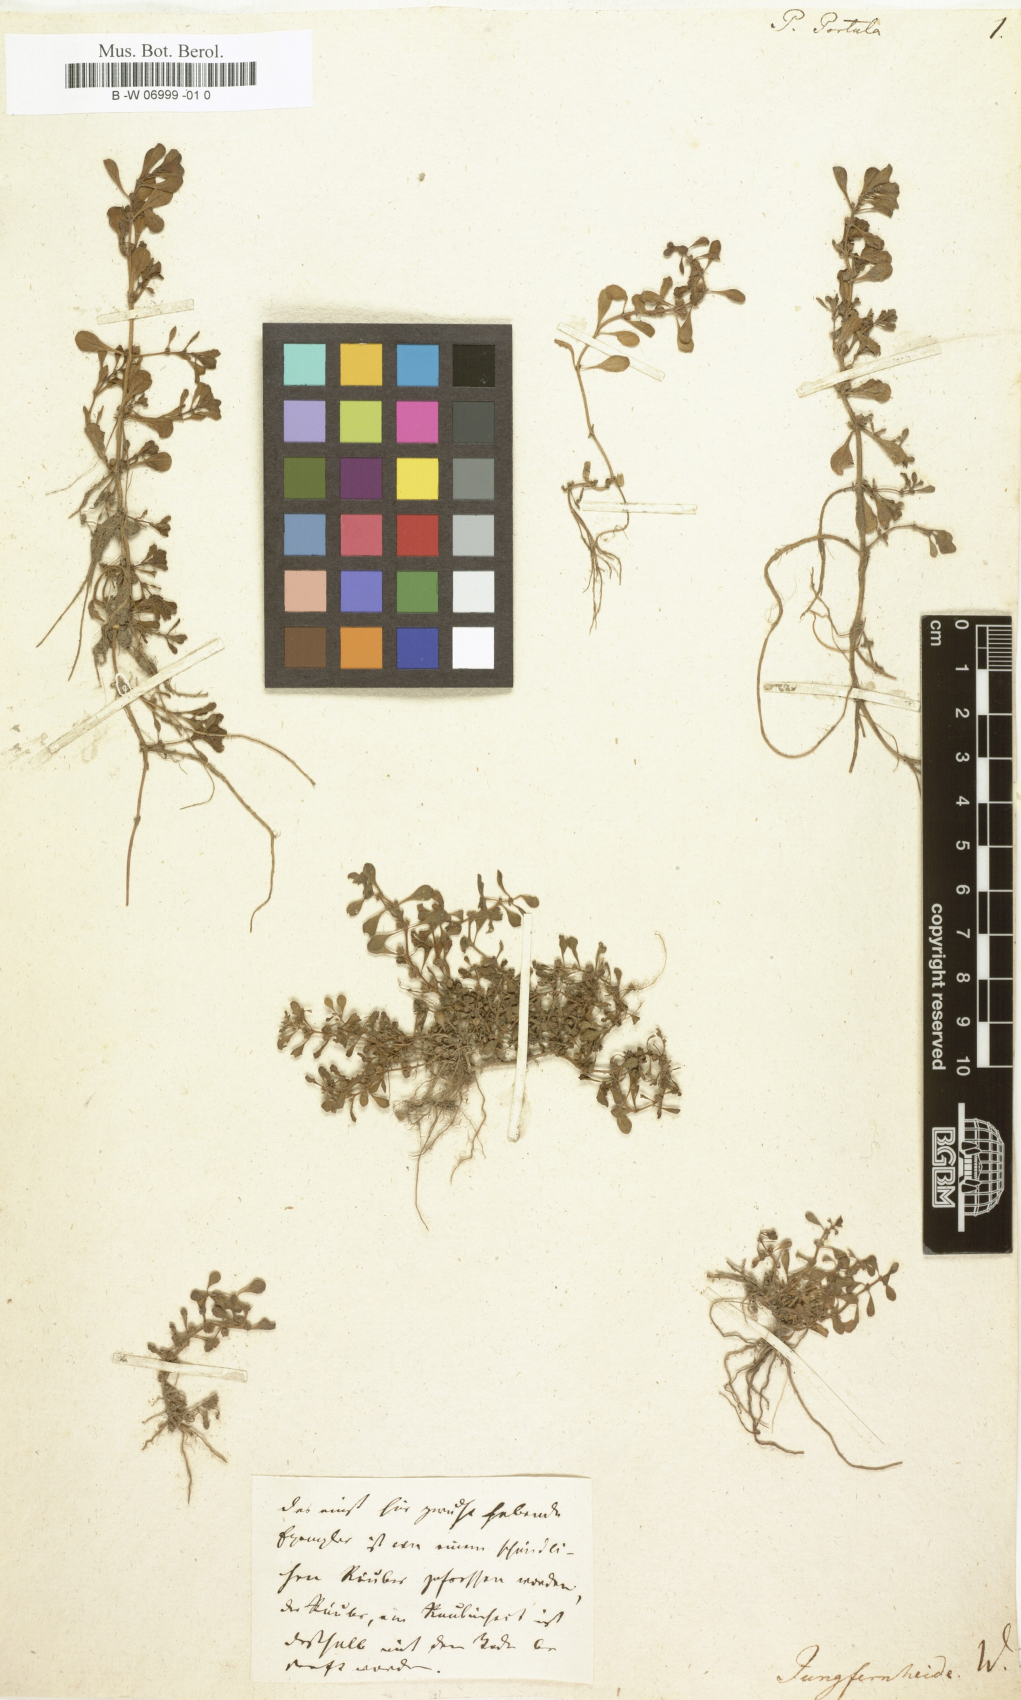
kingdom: Plantae
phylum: Tracheophyta
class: Magnoliopsida
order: Myrtales
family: Lythraceae
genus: Lythrum
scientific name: Lythrum portula
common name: Water purslane
